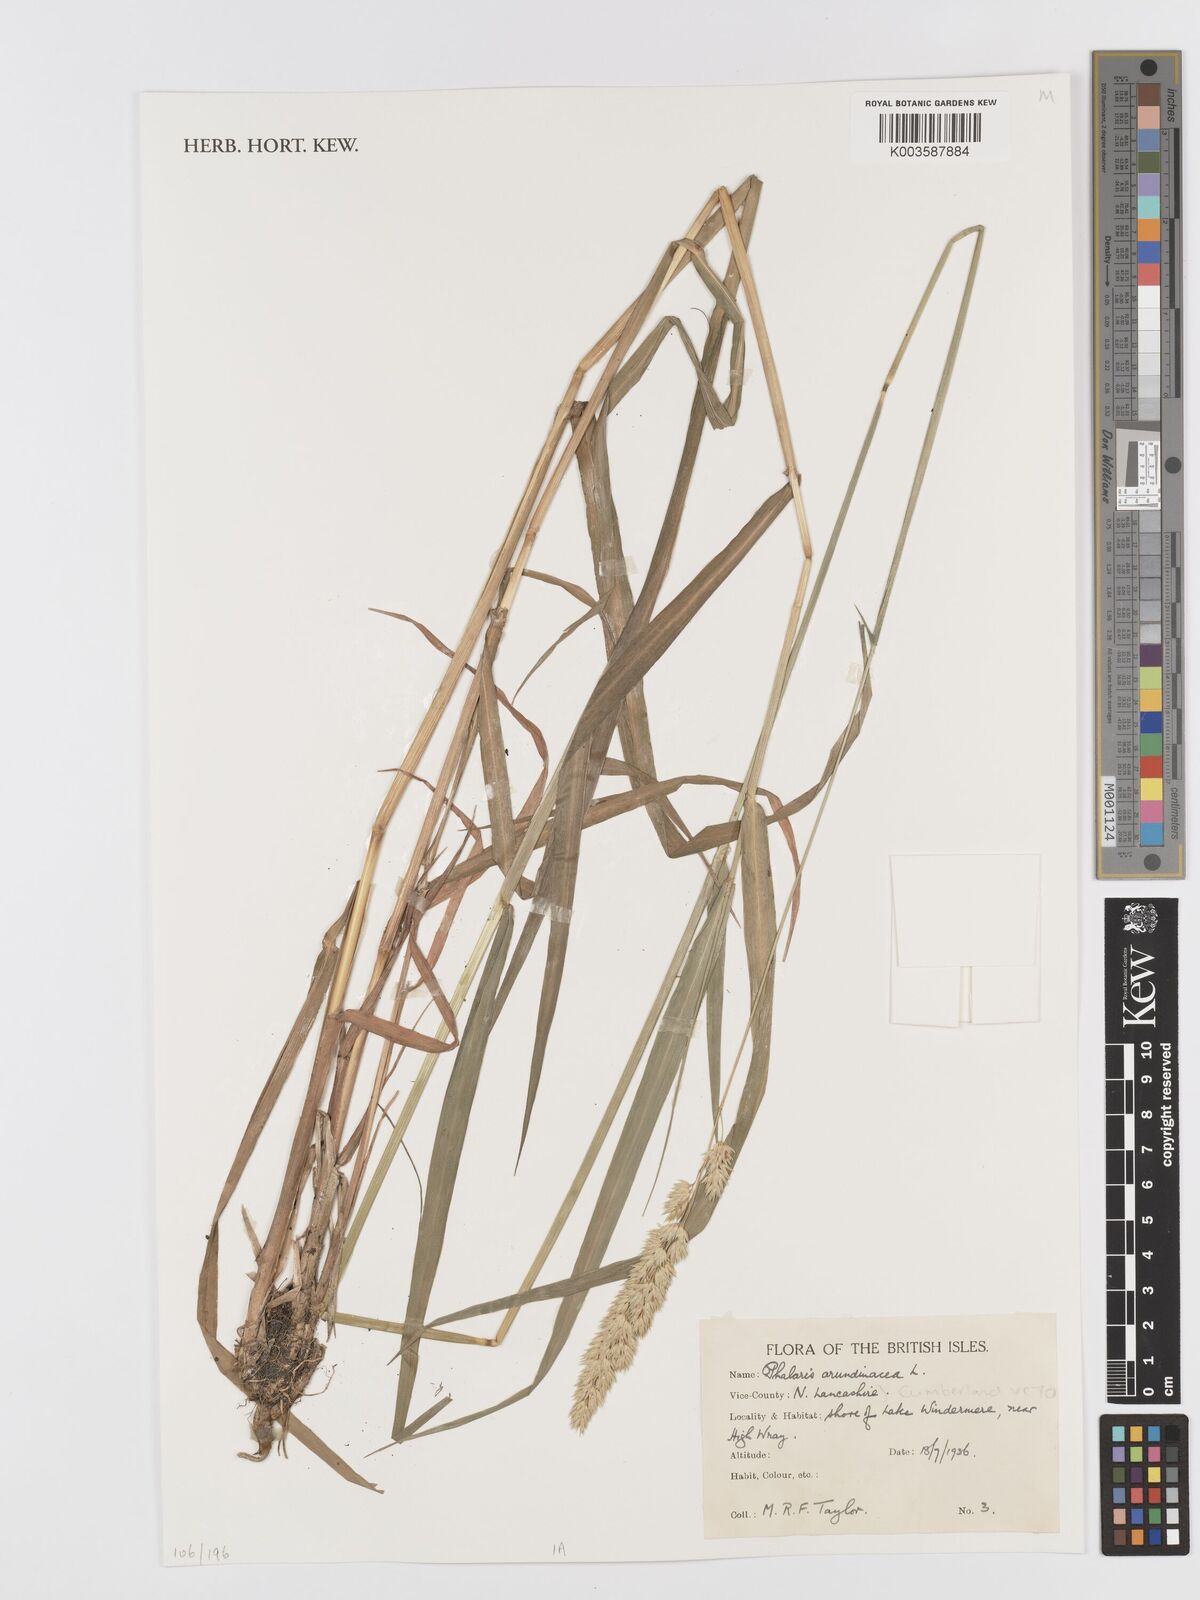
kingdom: Plantae
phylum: Tracheophyta
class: Liliopsida
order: Poales
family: Poaceae
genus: Phalaris
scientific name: Phalaris arundinacea
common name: Reed canary-grass
